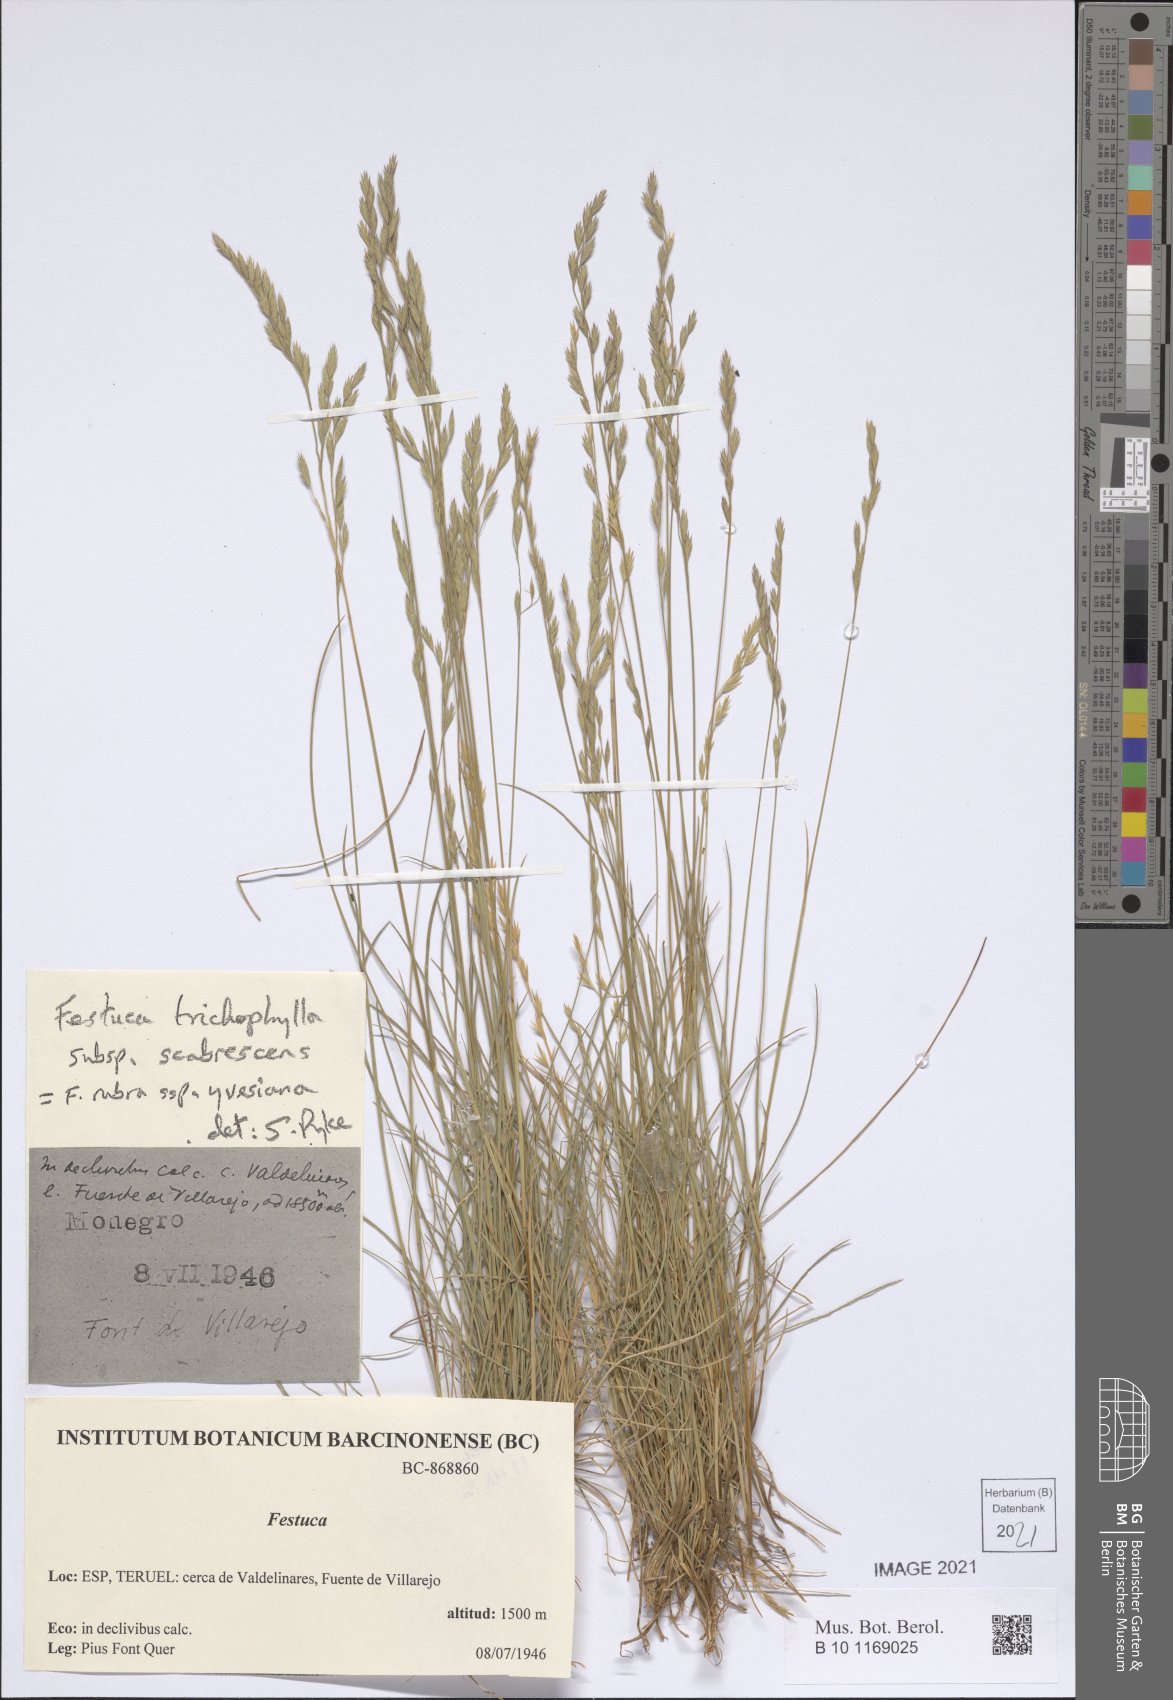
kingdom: Plantae
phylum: Tracheophyta
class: Liliopsida
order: Poales
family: Poaceae
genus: Festuca
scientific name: Festuca nevadensis
